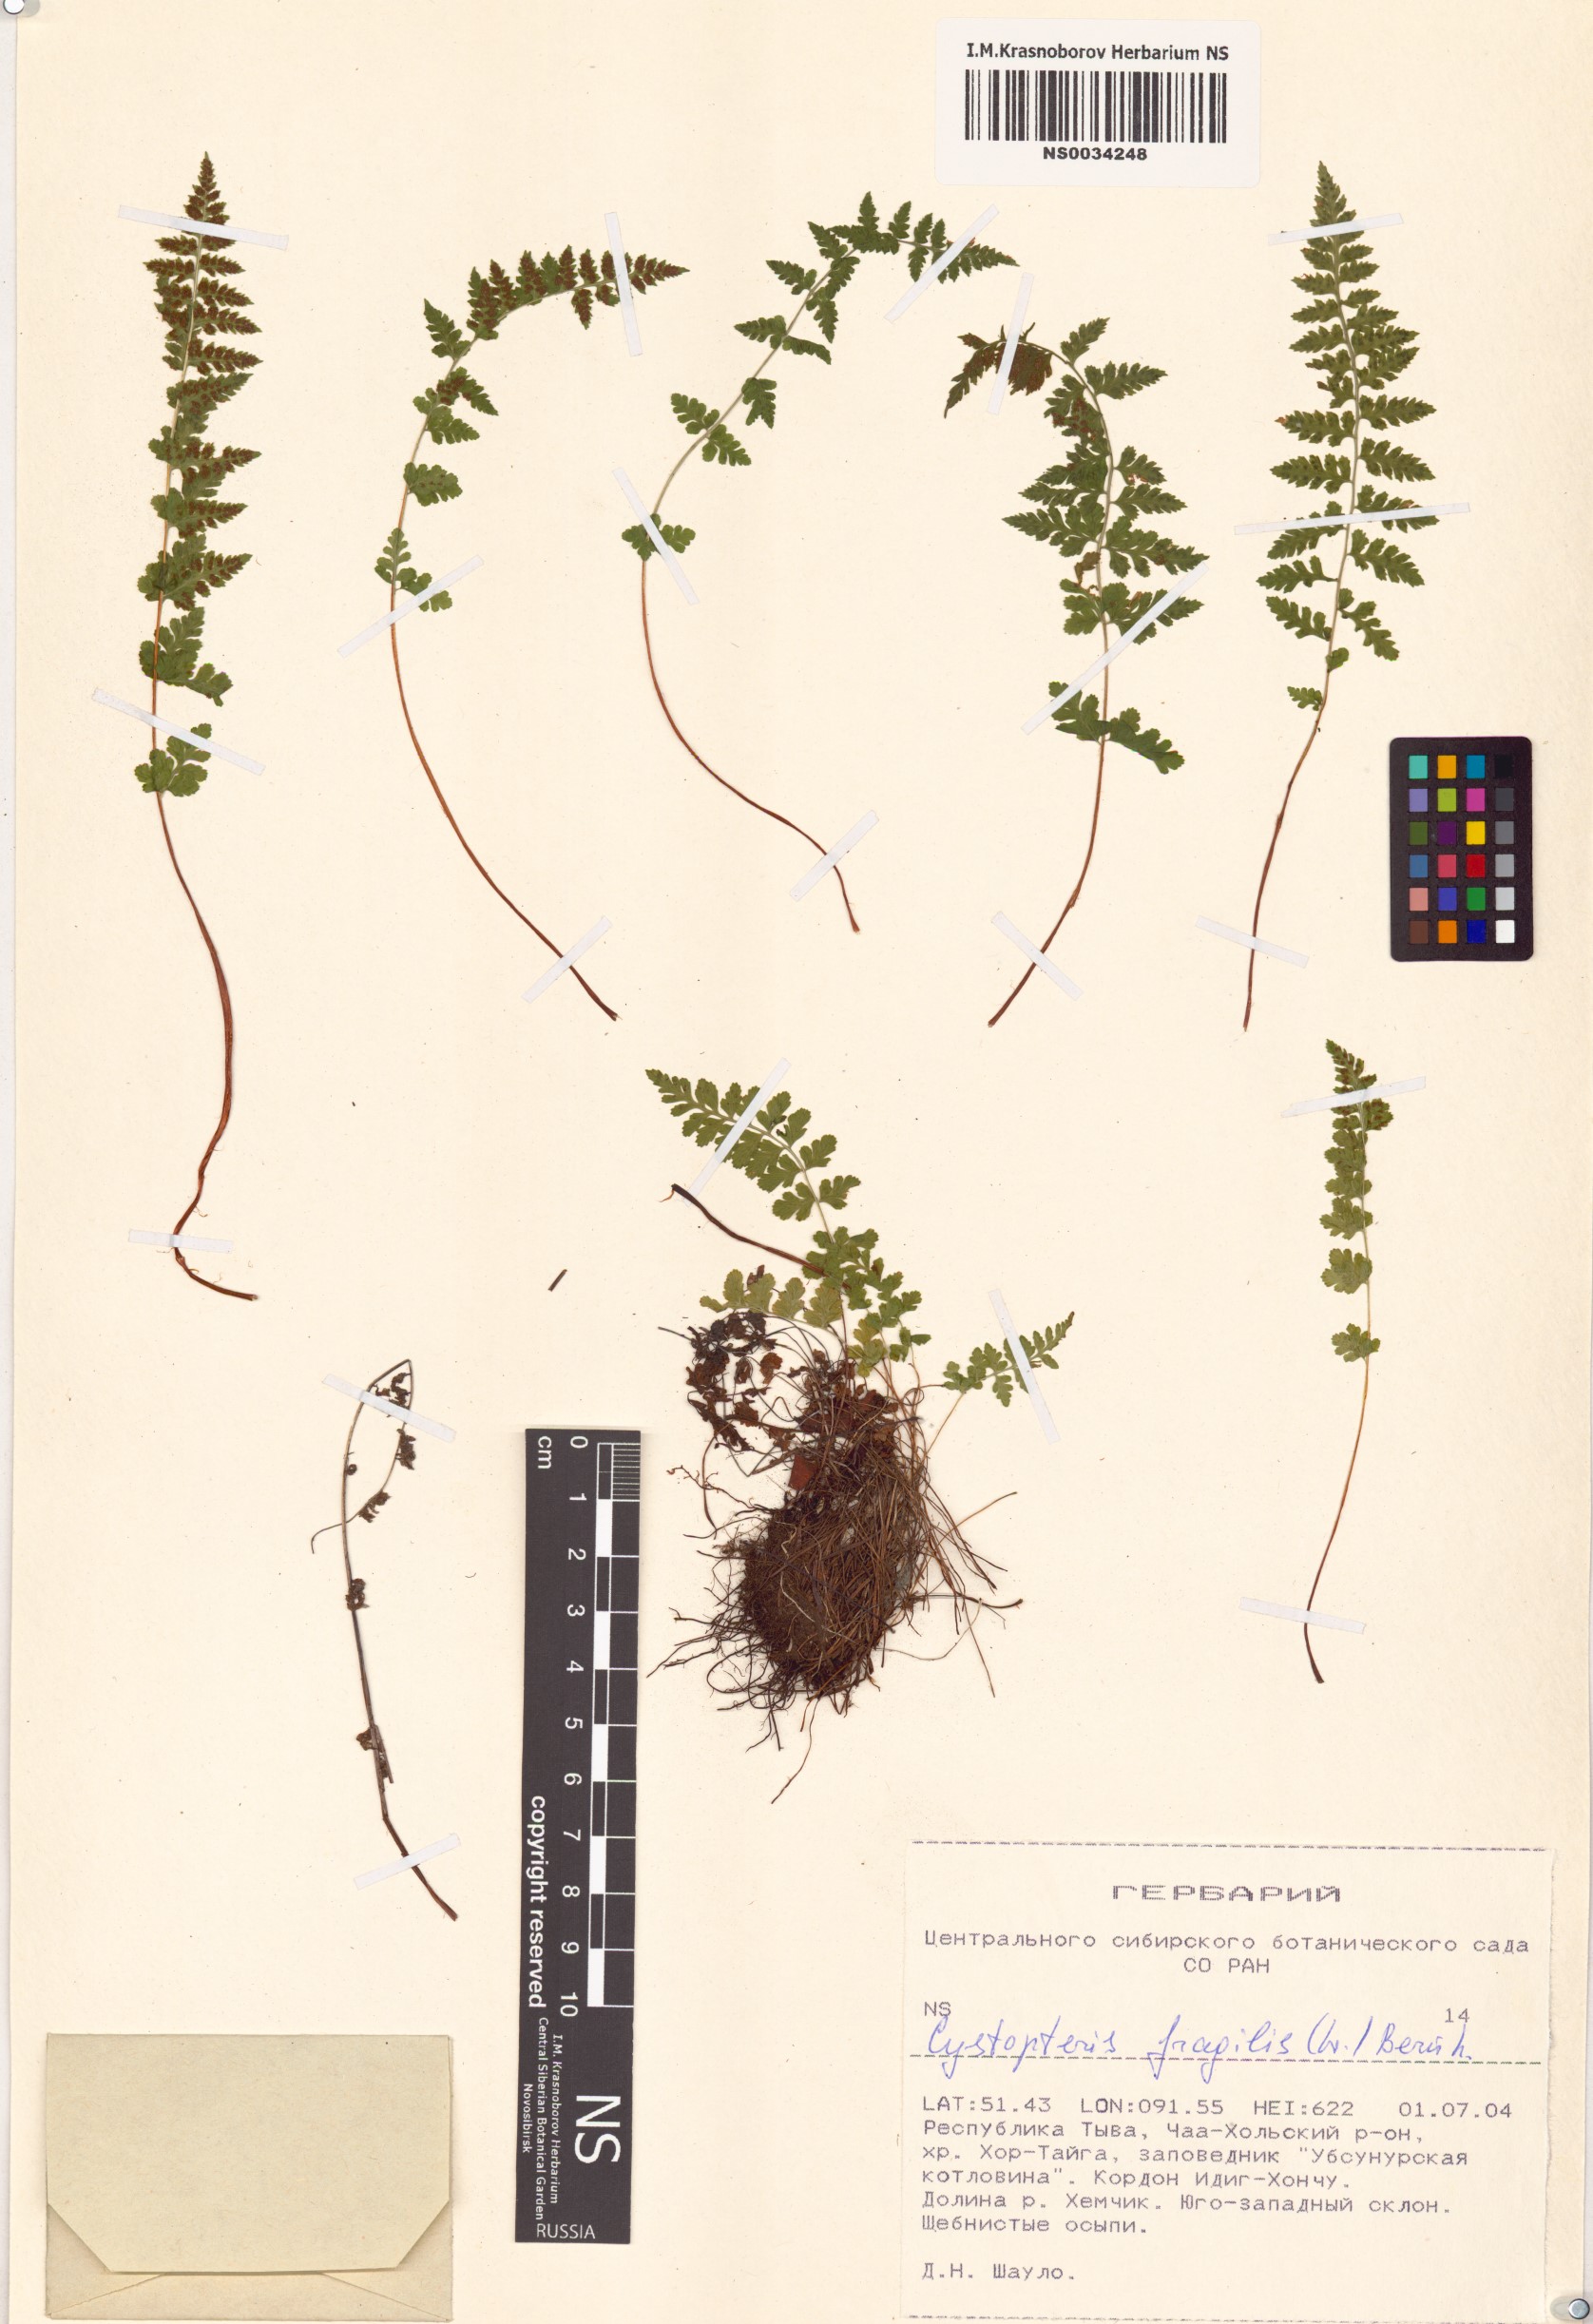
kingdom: Plantae
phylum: Tracheophyta
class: Polypodiopsida
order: Polypodiales
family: Cystopteridaceae
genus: Cystopteris
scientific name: Cystopteris fragilis
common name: Brittle bladder fern
